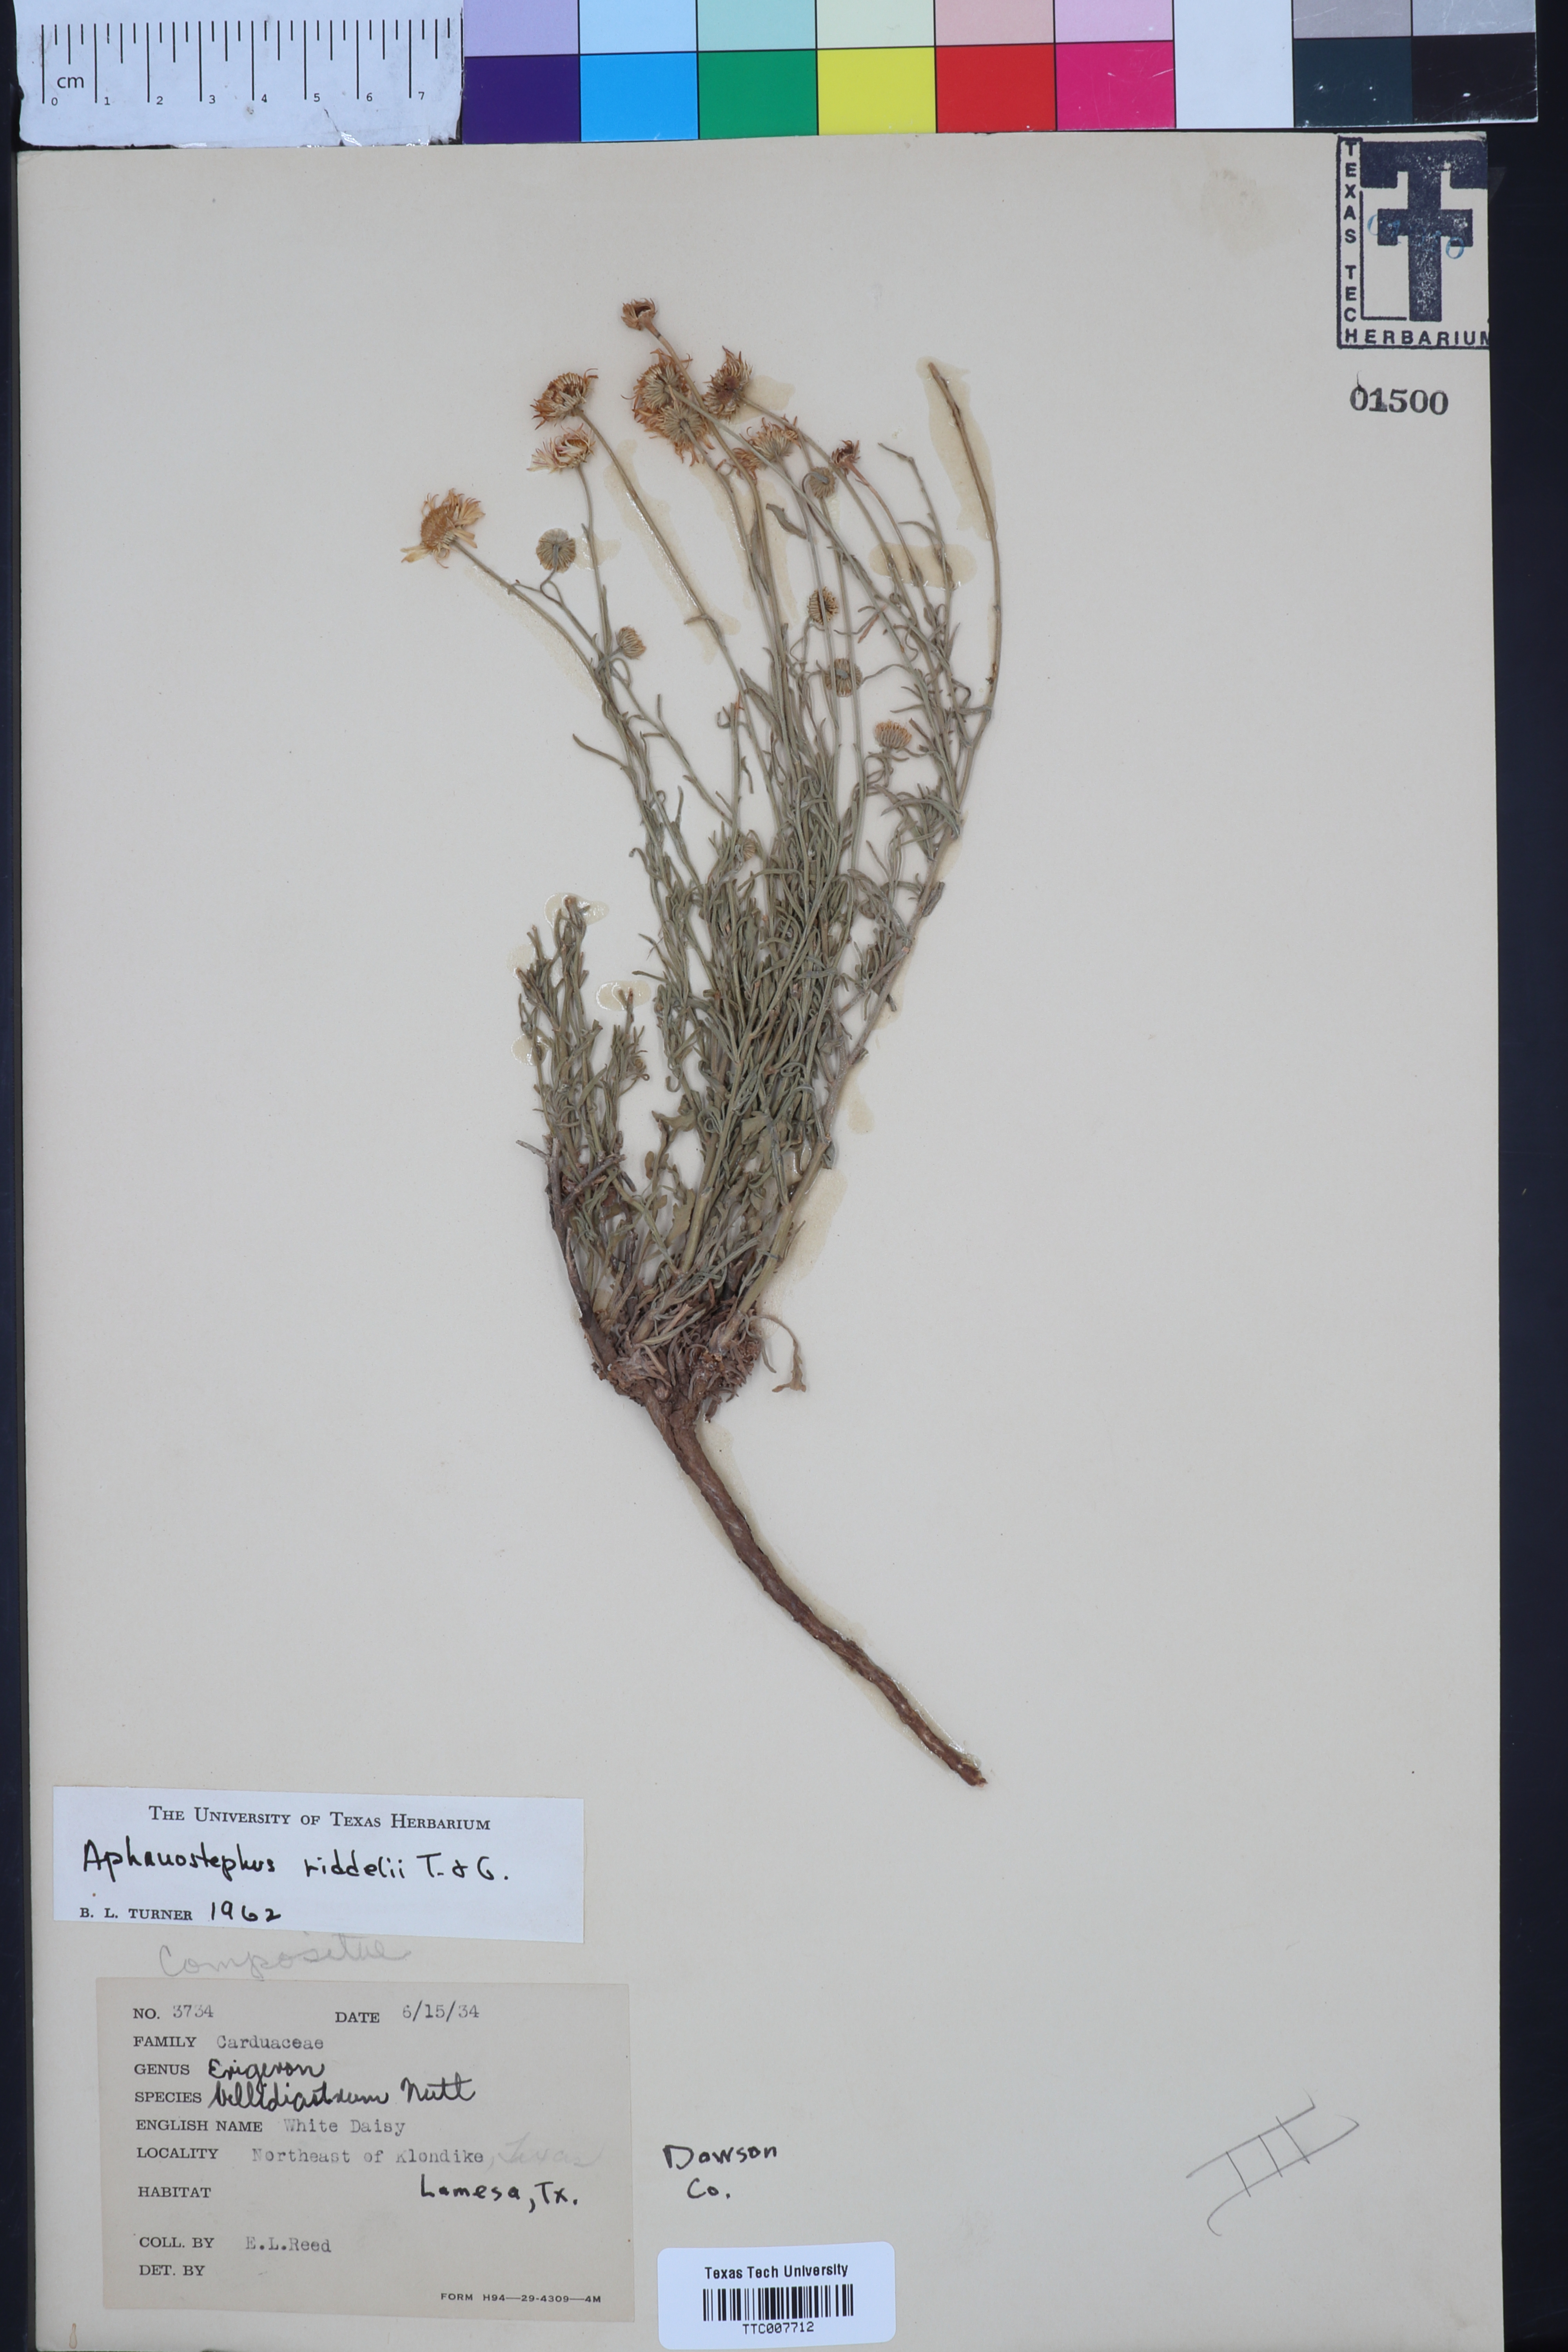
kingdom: Plantae
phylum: Tracheophyta
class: Magnoliopsida
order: Asterales
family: Asteraceae
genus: Aphanostephus
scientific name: Aphanostephus riddellii
